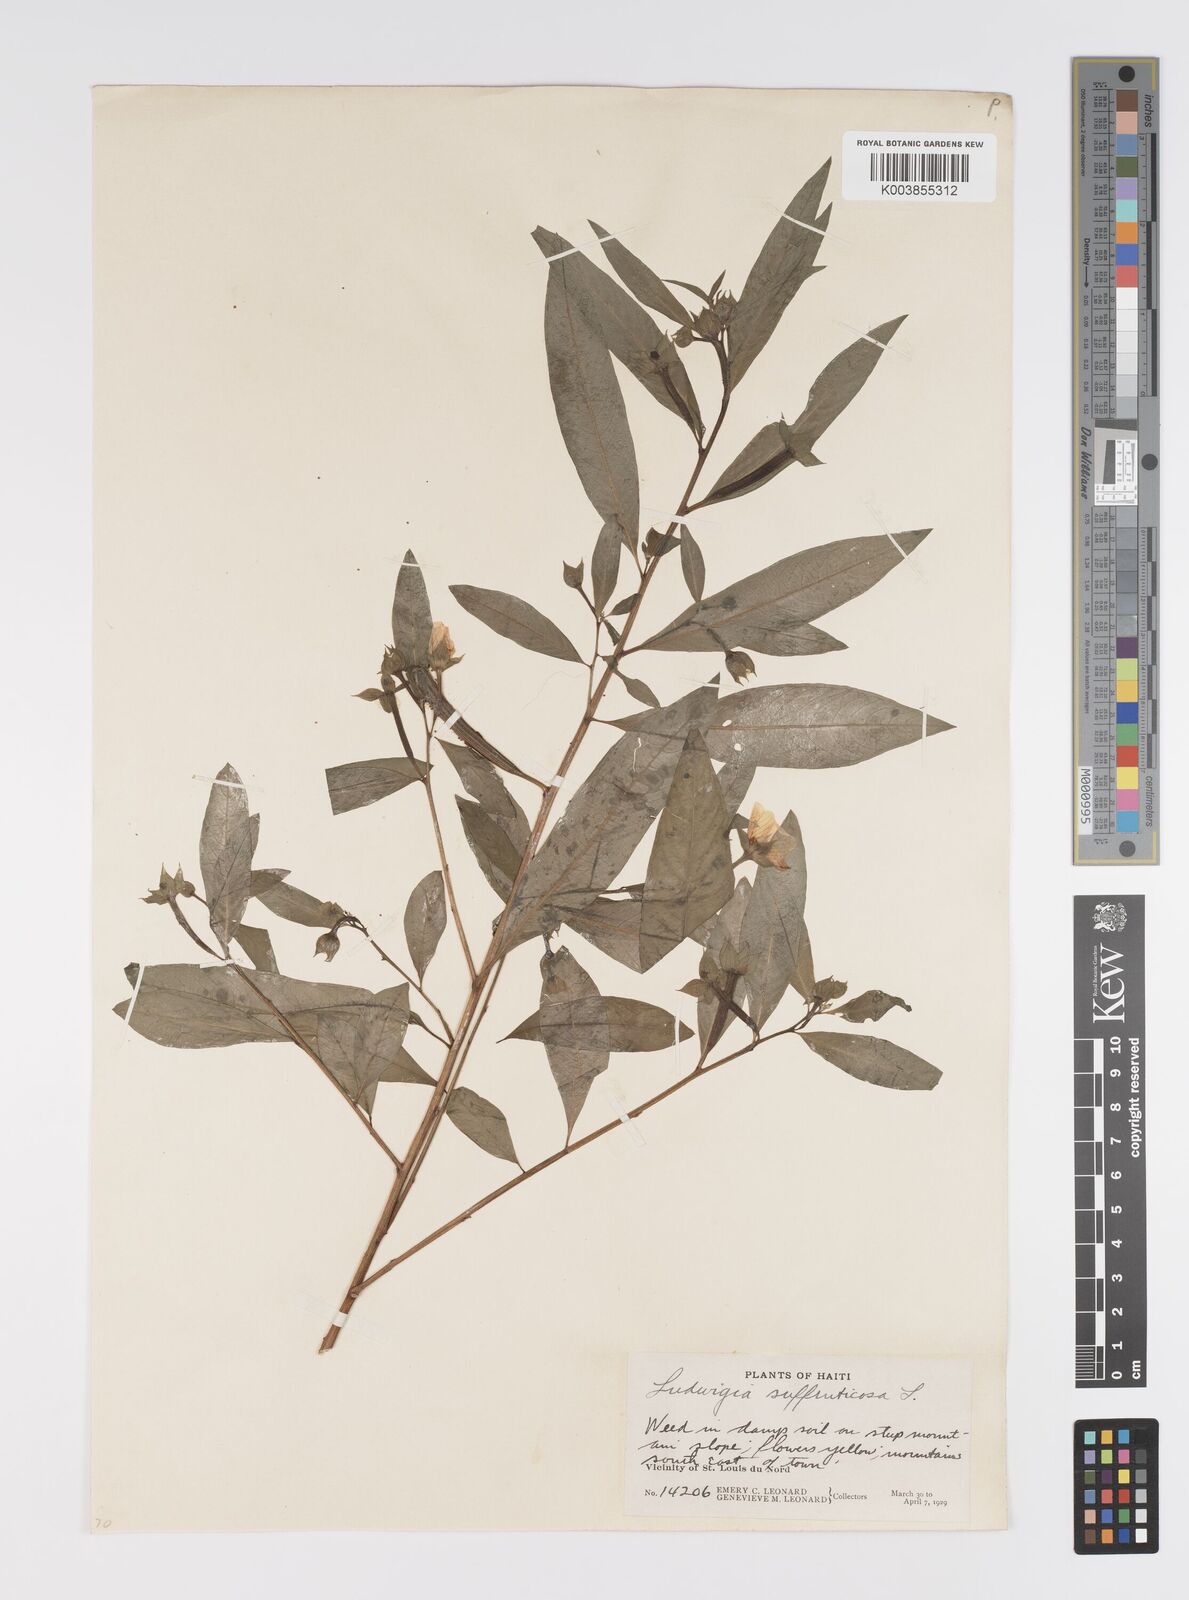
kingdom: Plantae
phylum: Tracheophyta
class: Magnoliopsida
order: Myrtales
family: Onagraceae
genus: Ludwigia
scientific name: Ludwigia octovalvis
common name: Water-primrose
